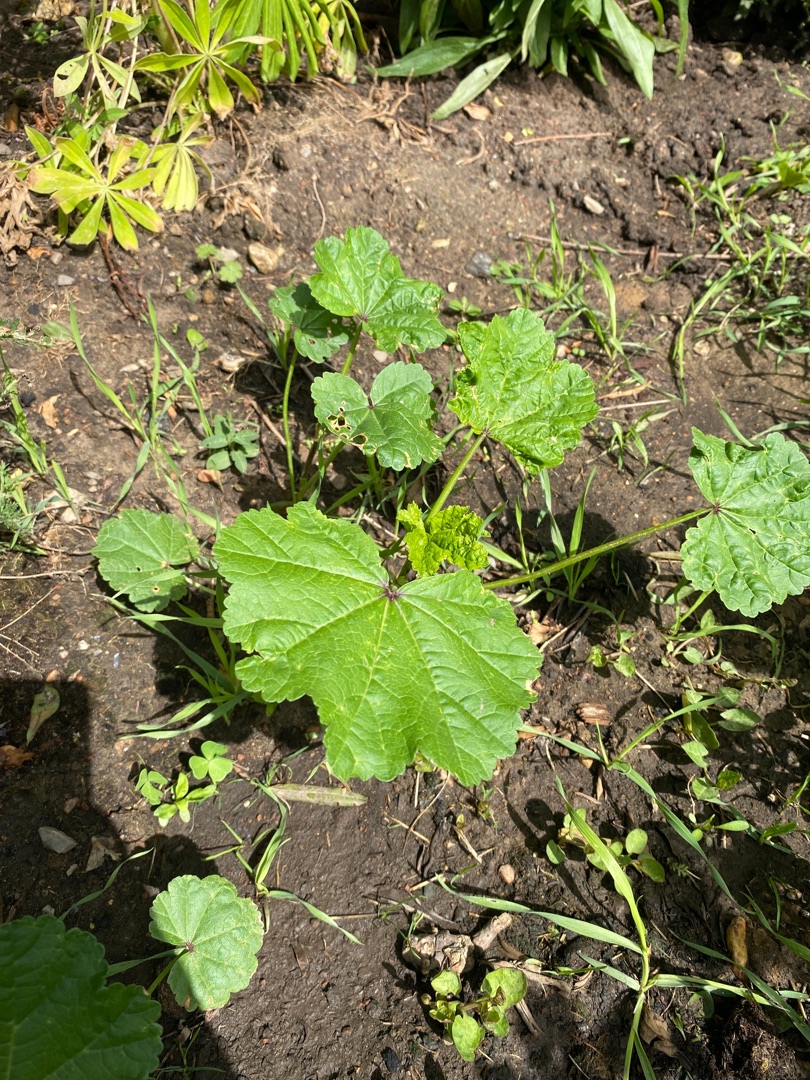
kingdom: Plantae
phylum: Tracheophyta
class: Magnoliopsida
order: Malvales
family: Malvaceae
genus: Malva
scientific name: Malva
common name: Katostslægten
